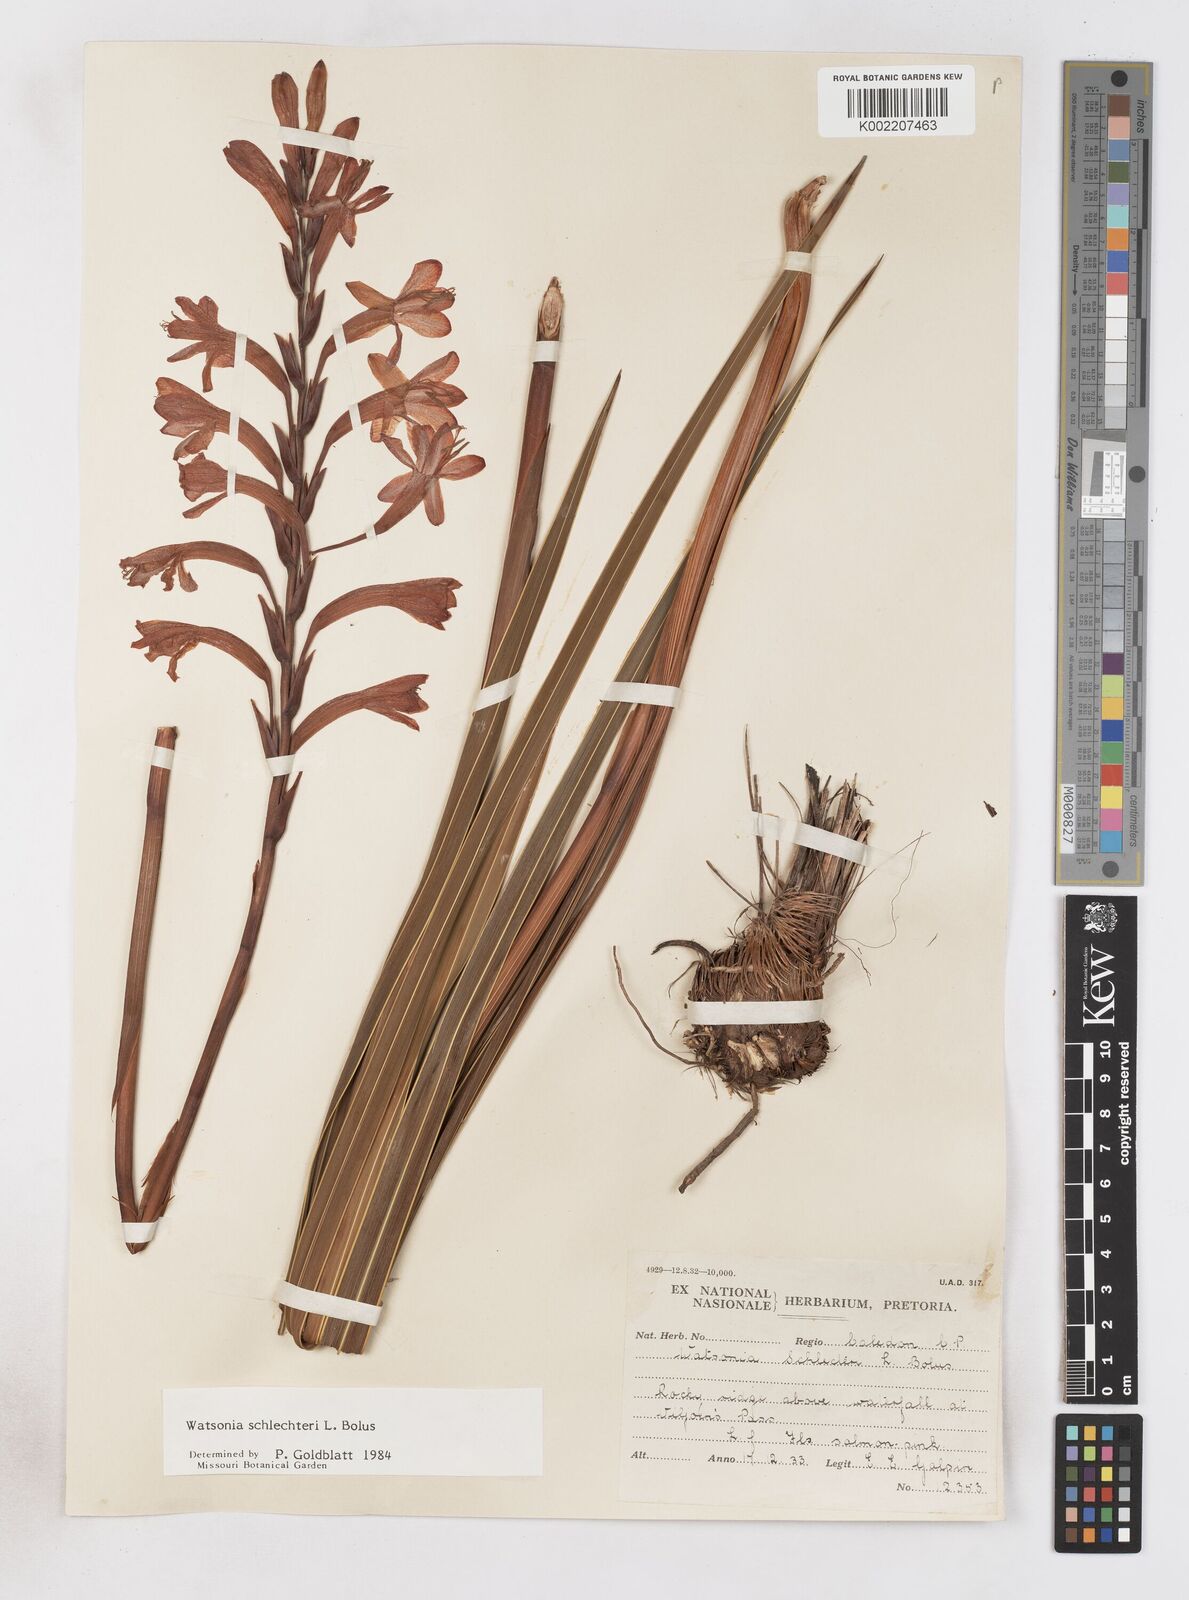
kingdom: Plantae
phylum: Tracheophyta
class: Liliopsida
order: Asparagales
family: Iridaceae
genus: Watsonia
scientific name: Watsonia schlechteri
